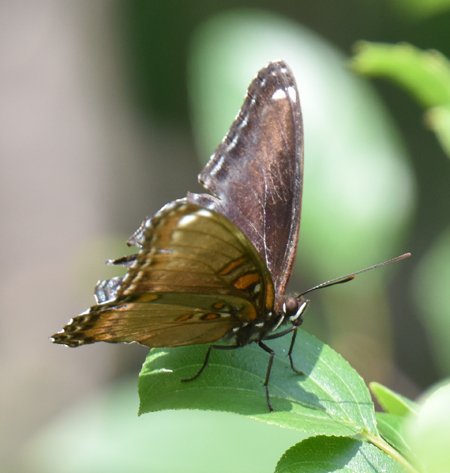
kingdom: Animalia
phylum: Arthropoda
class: Insecta
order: Lepidoptera
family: Nymphalidae
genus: Limenitis
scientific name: Limenitis astyanax
